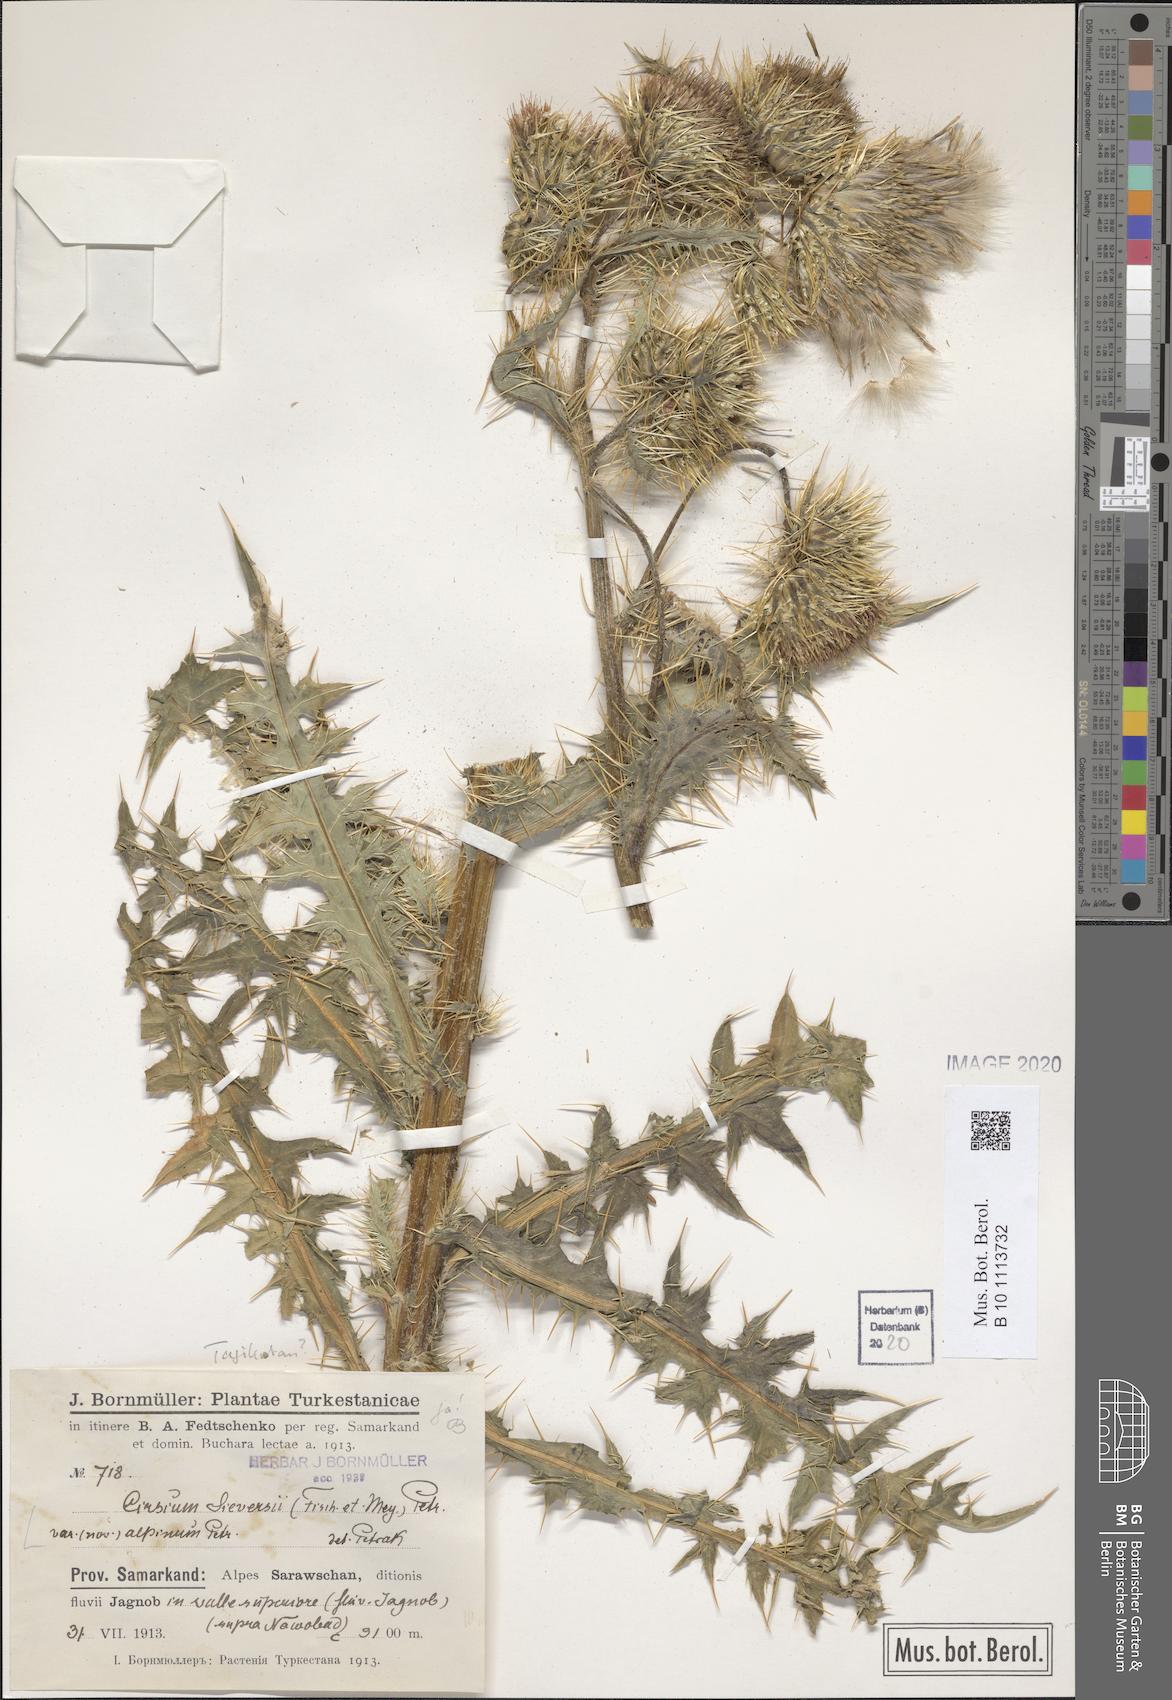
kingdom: Plantae
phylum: Tracheophyta
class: Magnoliopsida
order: Asterales
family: Asteraceae
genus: Cirsium
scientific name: Cirsium sieversii
